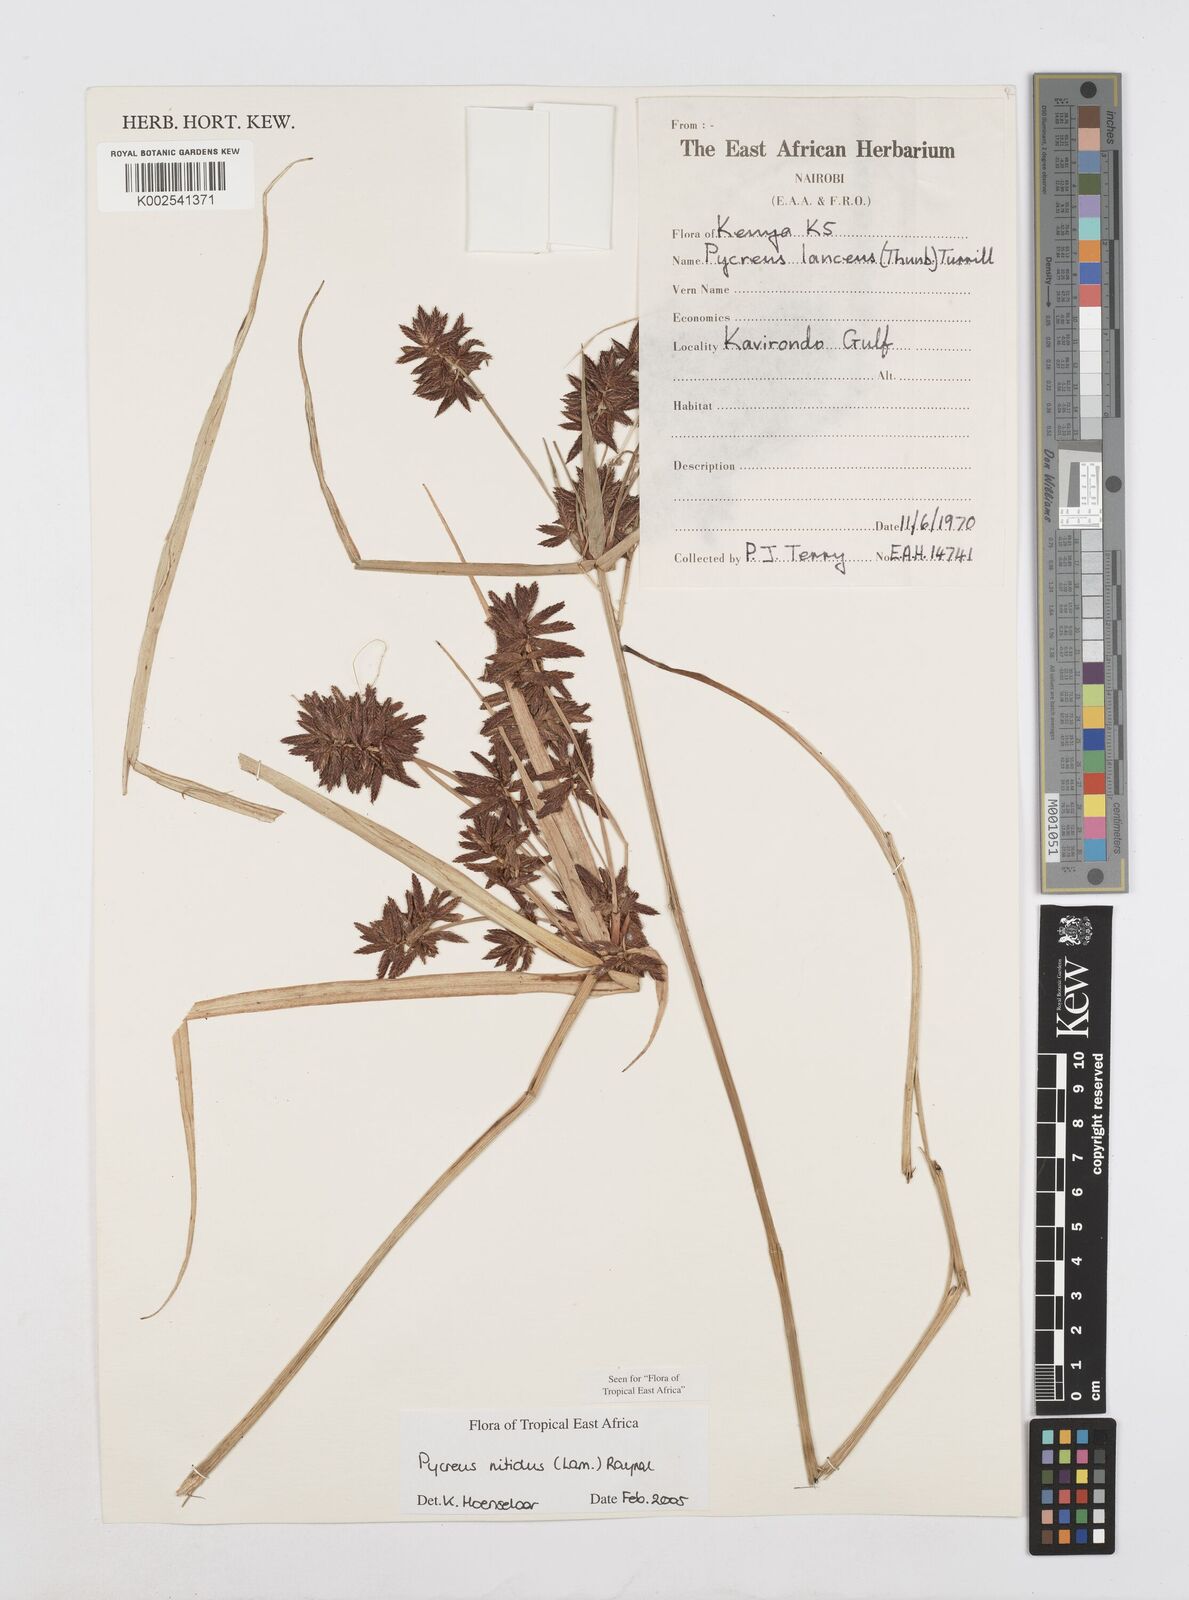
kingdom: Plantae
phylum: Tracheophyta
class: Liliopsida
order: Poales
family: Cyperaceae
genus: Cyperus
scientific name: Cyperus nitidus
